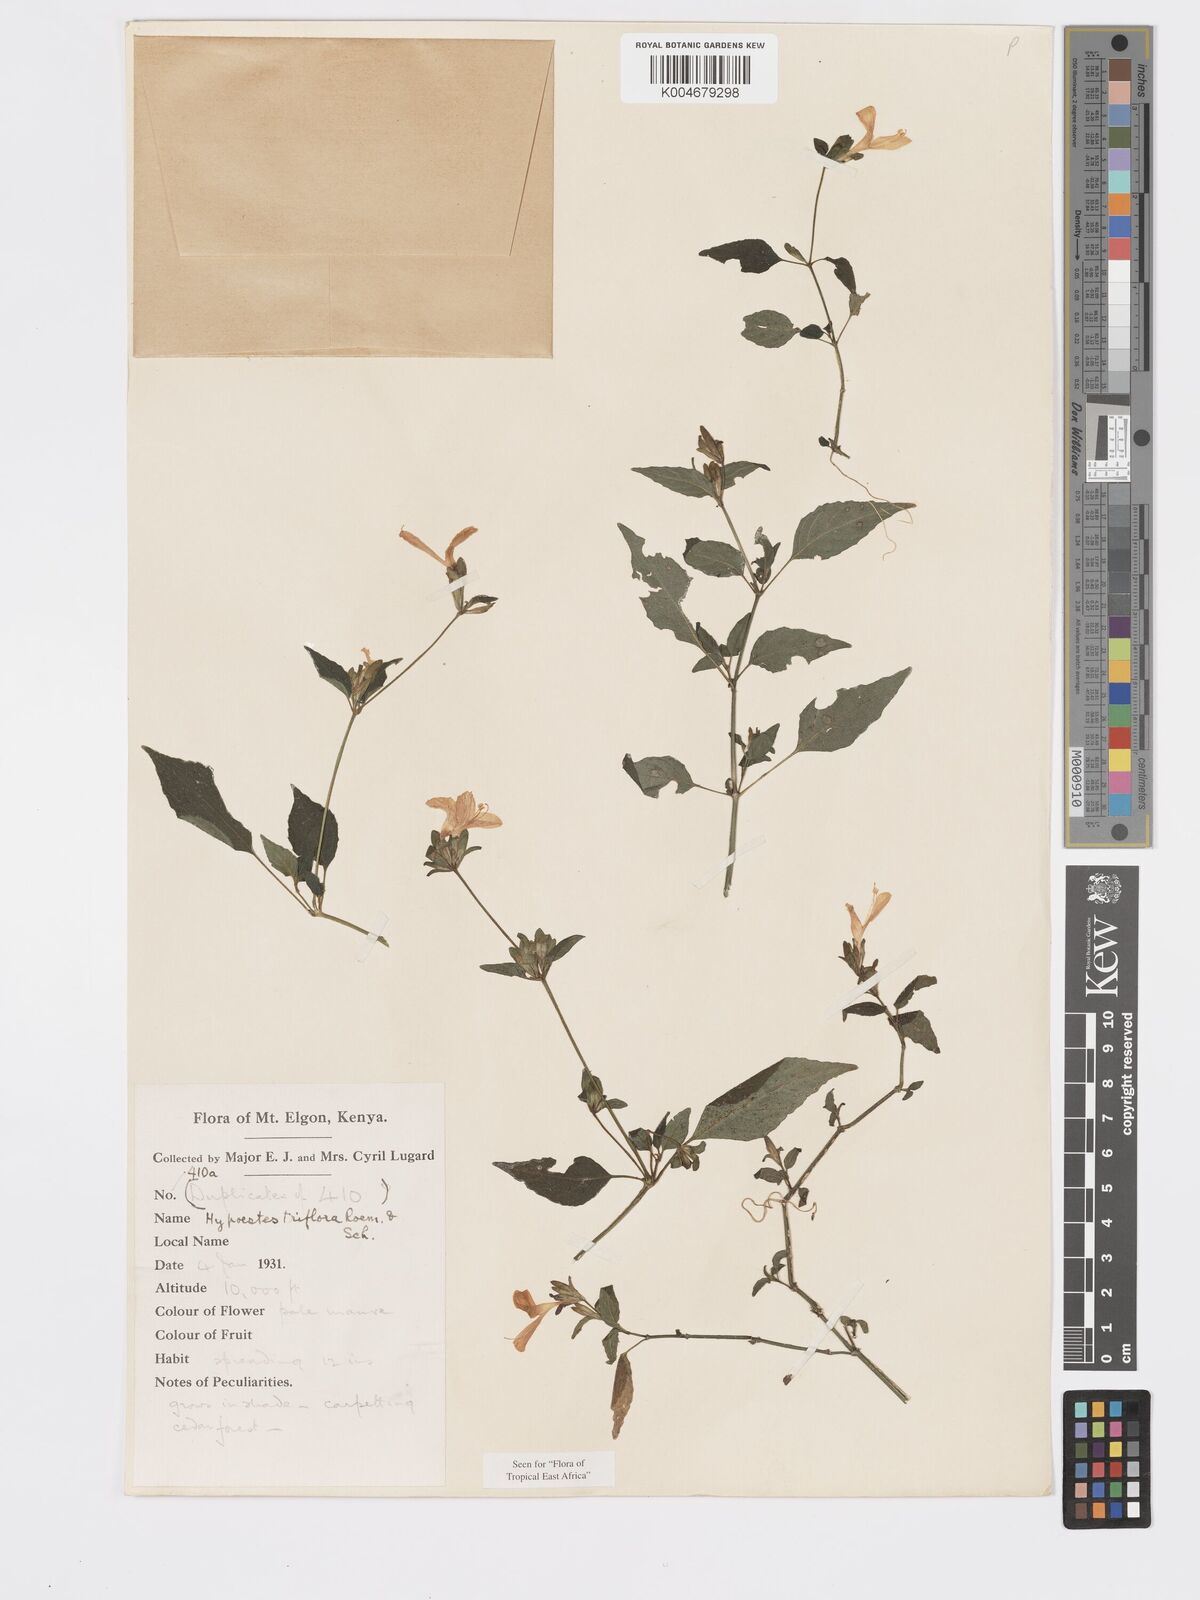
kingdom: Plantae
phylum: Tracheophyta
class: Magnoliopsida
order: Lamiales
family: Acanthaceae
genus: Hypoestes
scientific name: Hypoestes triflora
